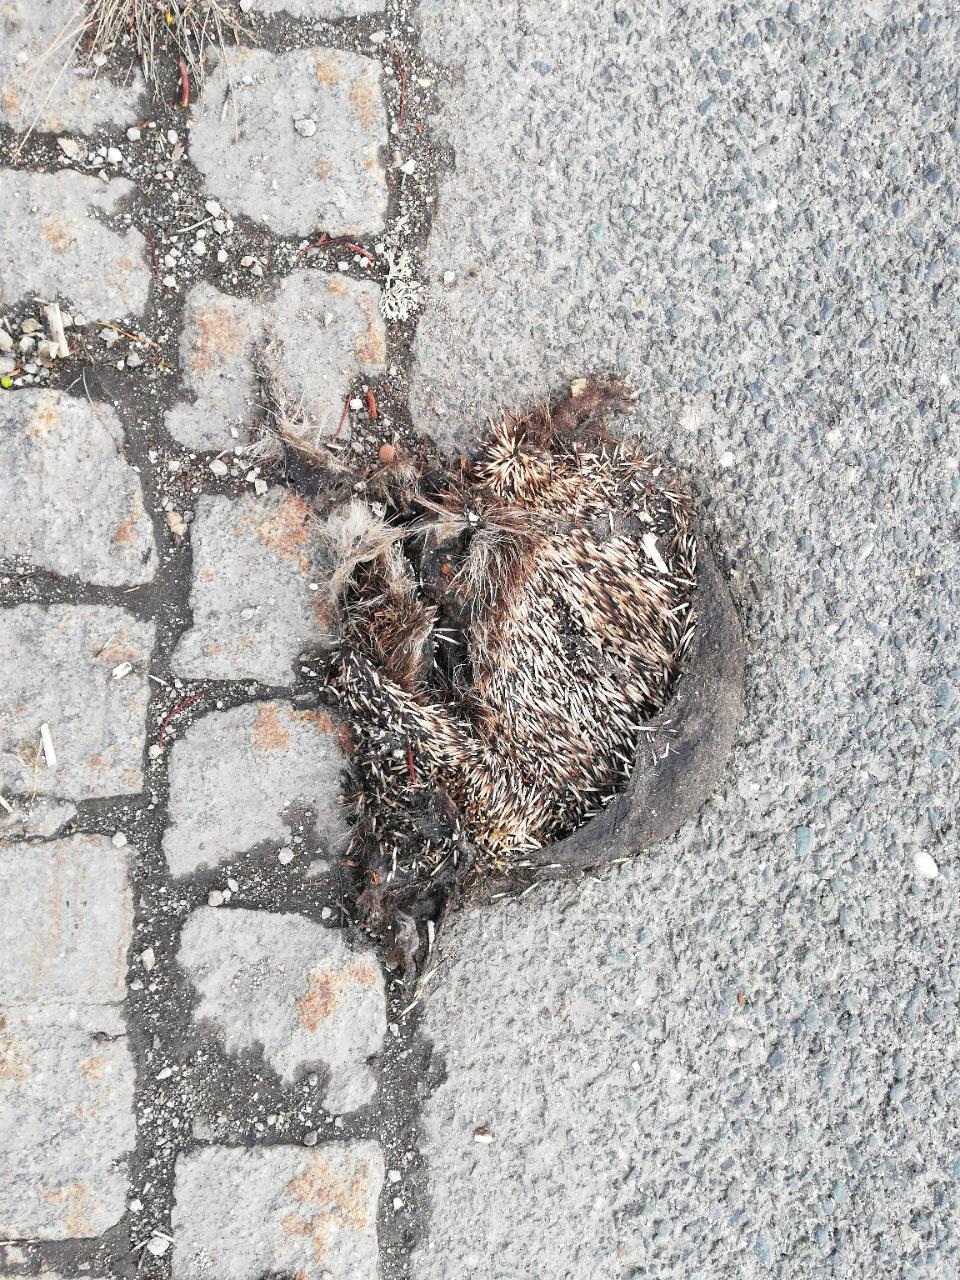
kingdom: Animalia
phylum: Chordata
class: Mammalia
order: Erinaceomorpha
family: Erinaceidae
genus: Erinaceus
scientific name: Erinaceus
